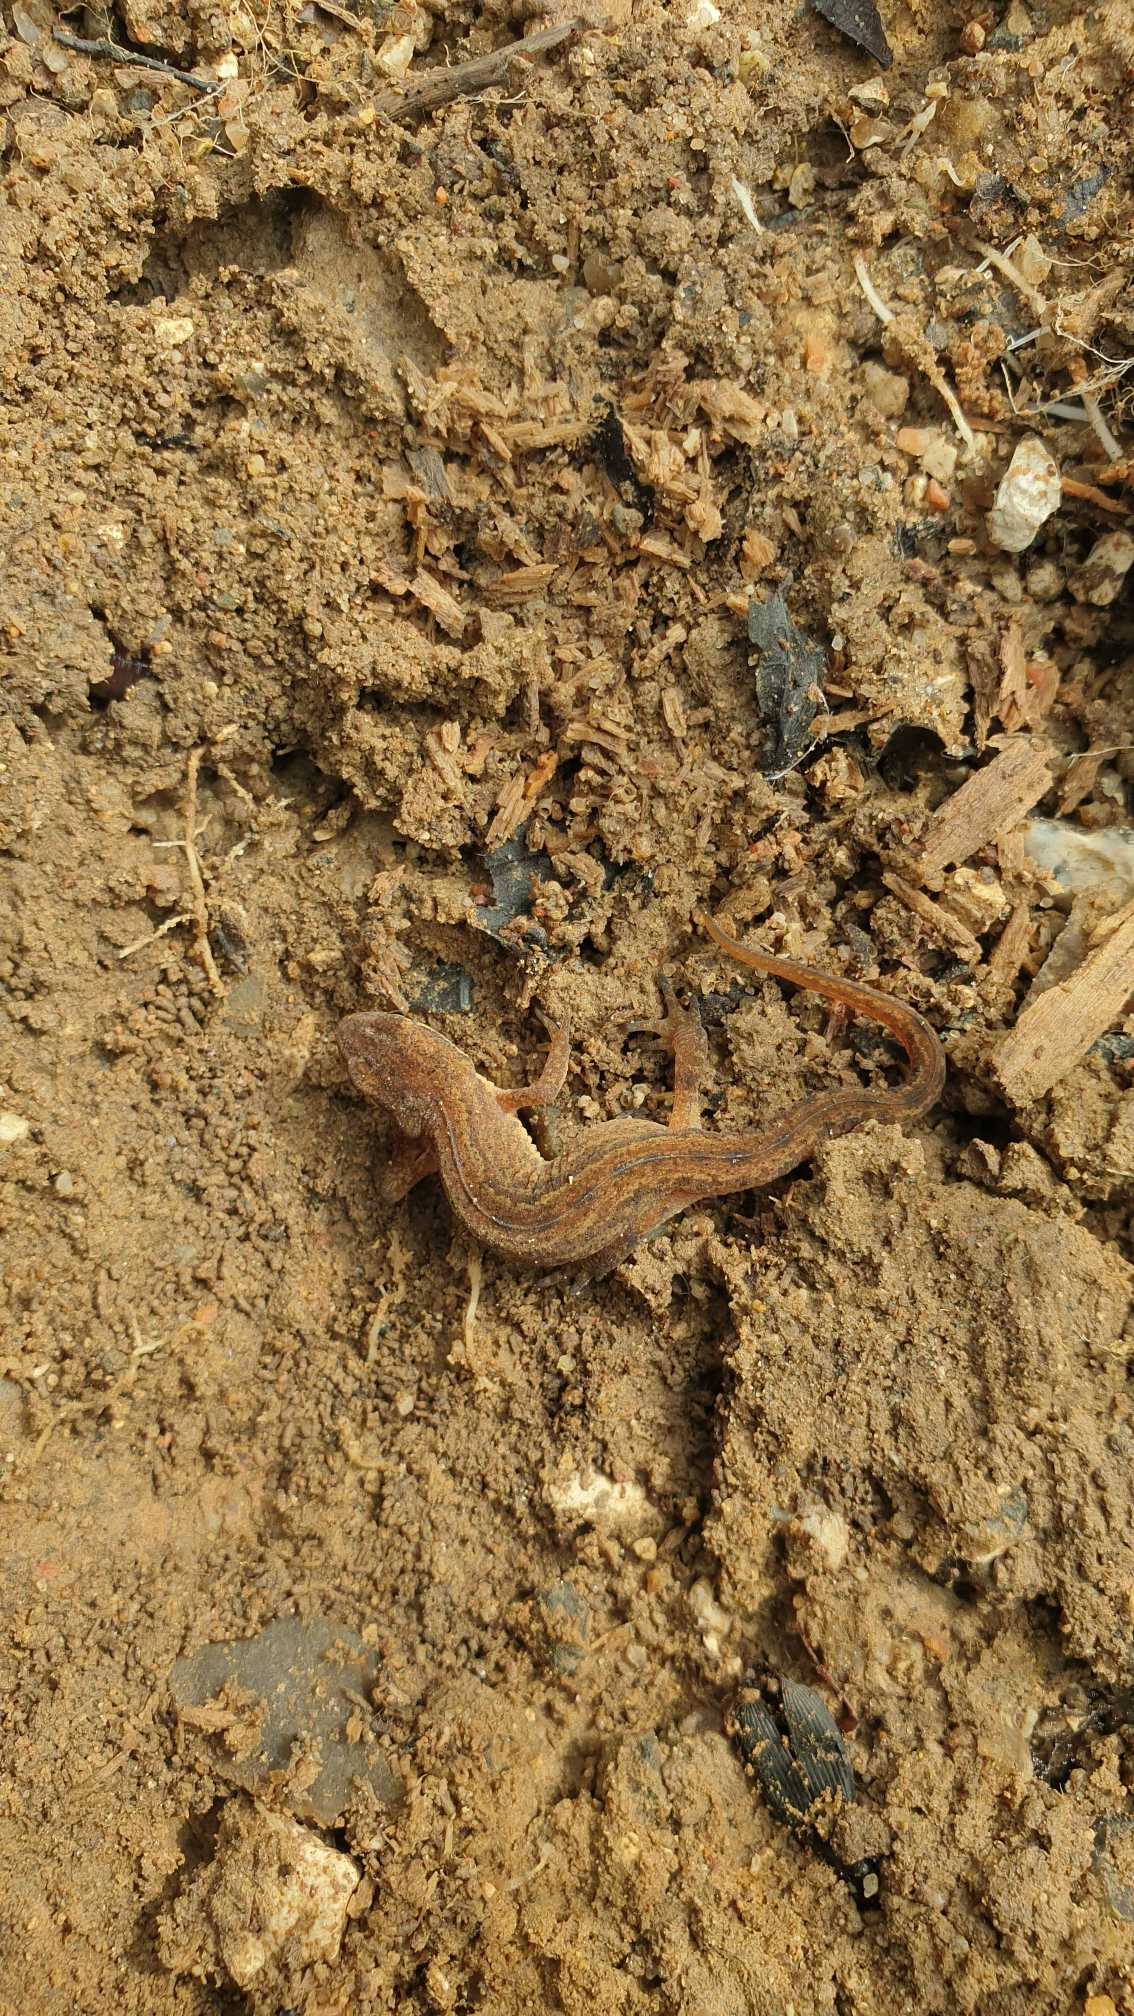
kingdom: Animalia
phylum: Chordata
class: Amphibia
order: Caudata
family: Salamandridae
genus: Lissotriton
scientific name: Lissotriton vulgaris
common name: Lille vandsalamander
